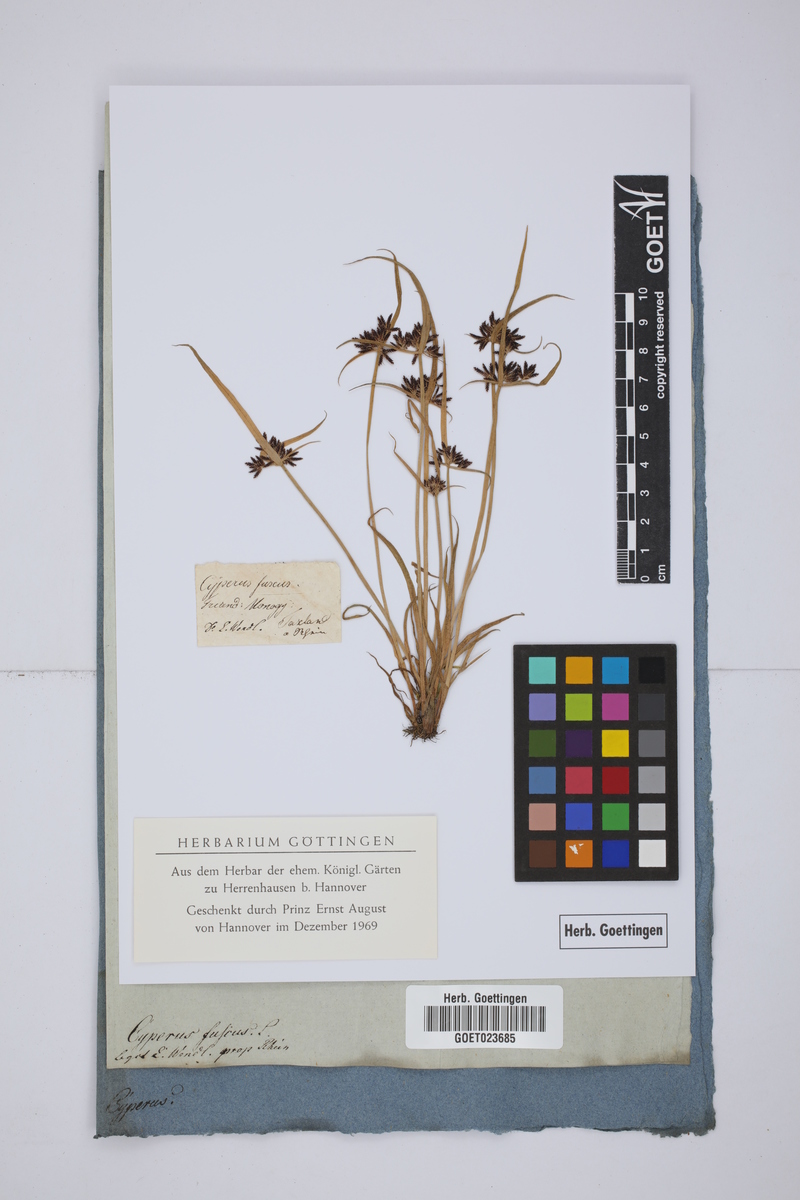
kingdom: Plantae
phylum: Tracheophyta
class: Liliopsida
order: Poales
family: Cyperaceae
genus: Cyperus
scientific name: Cyperus fuscus
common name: Brown galingale
